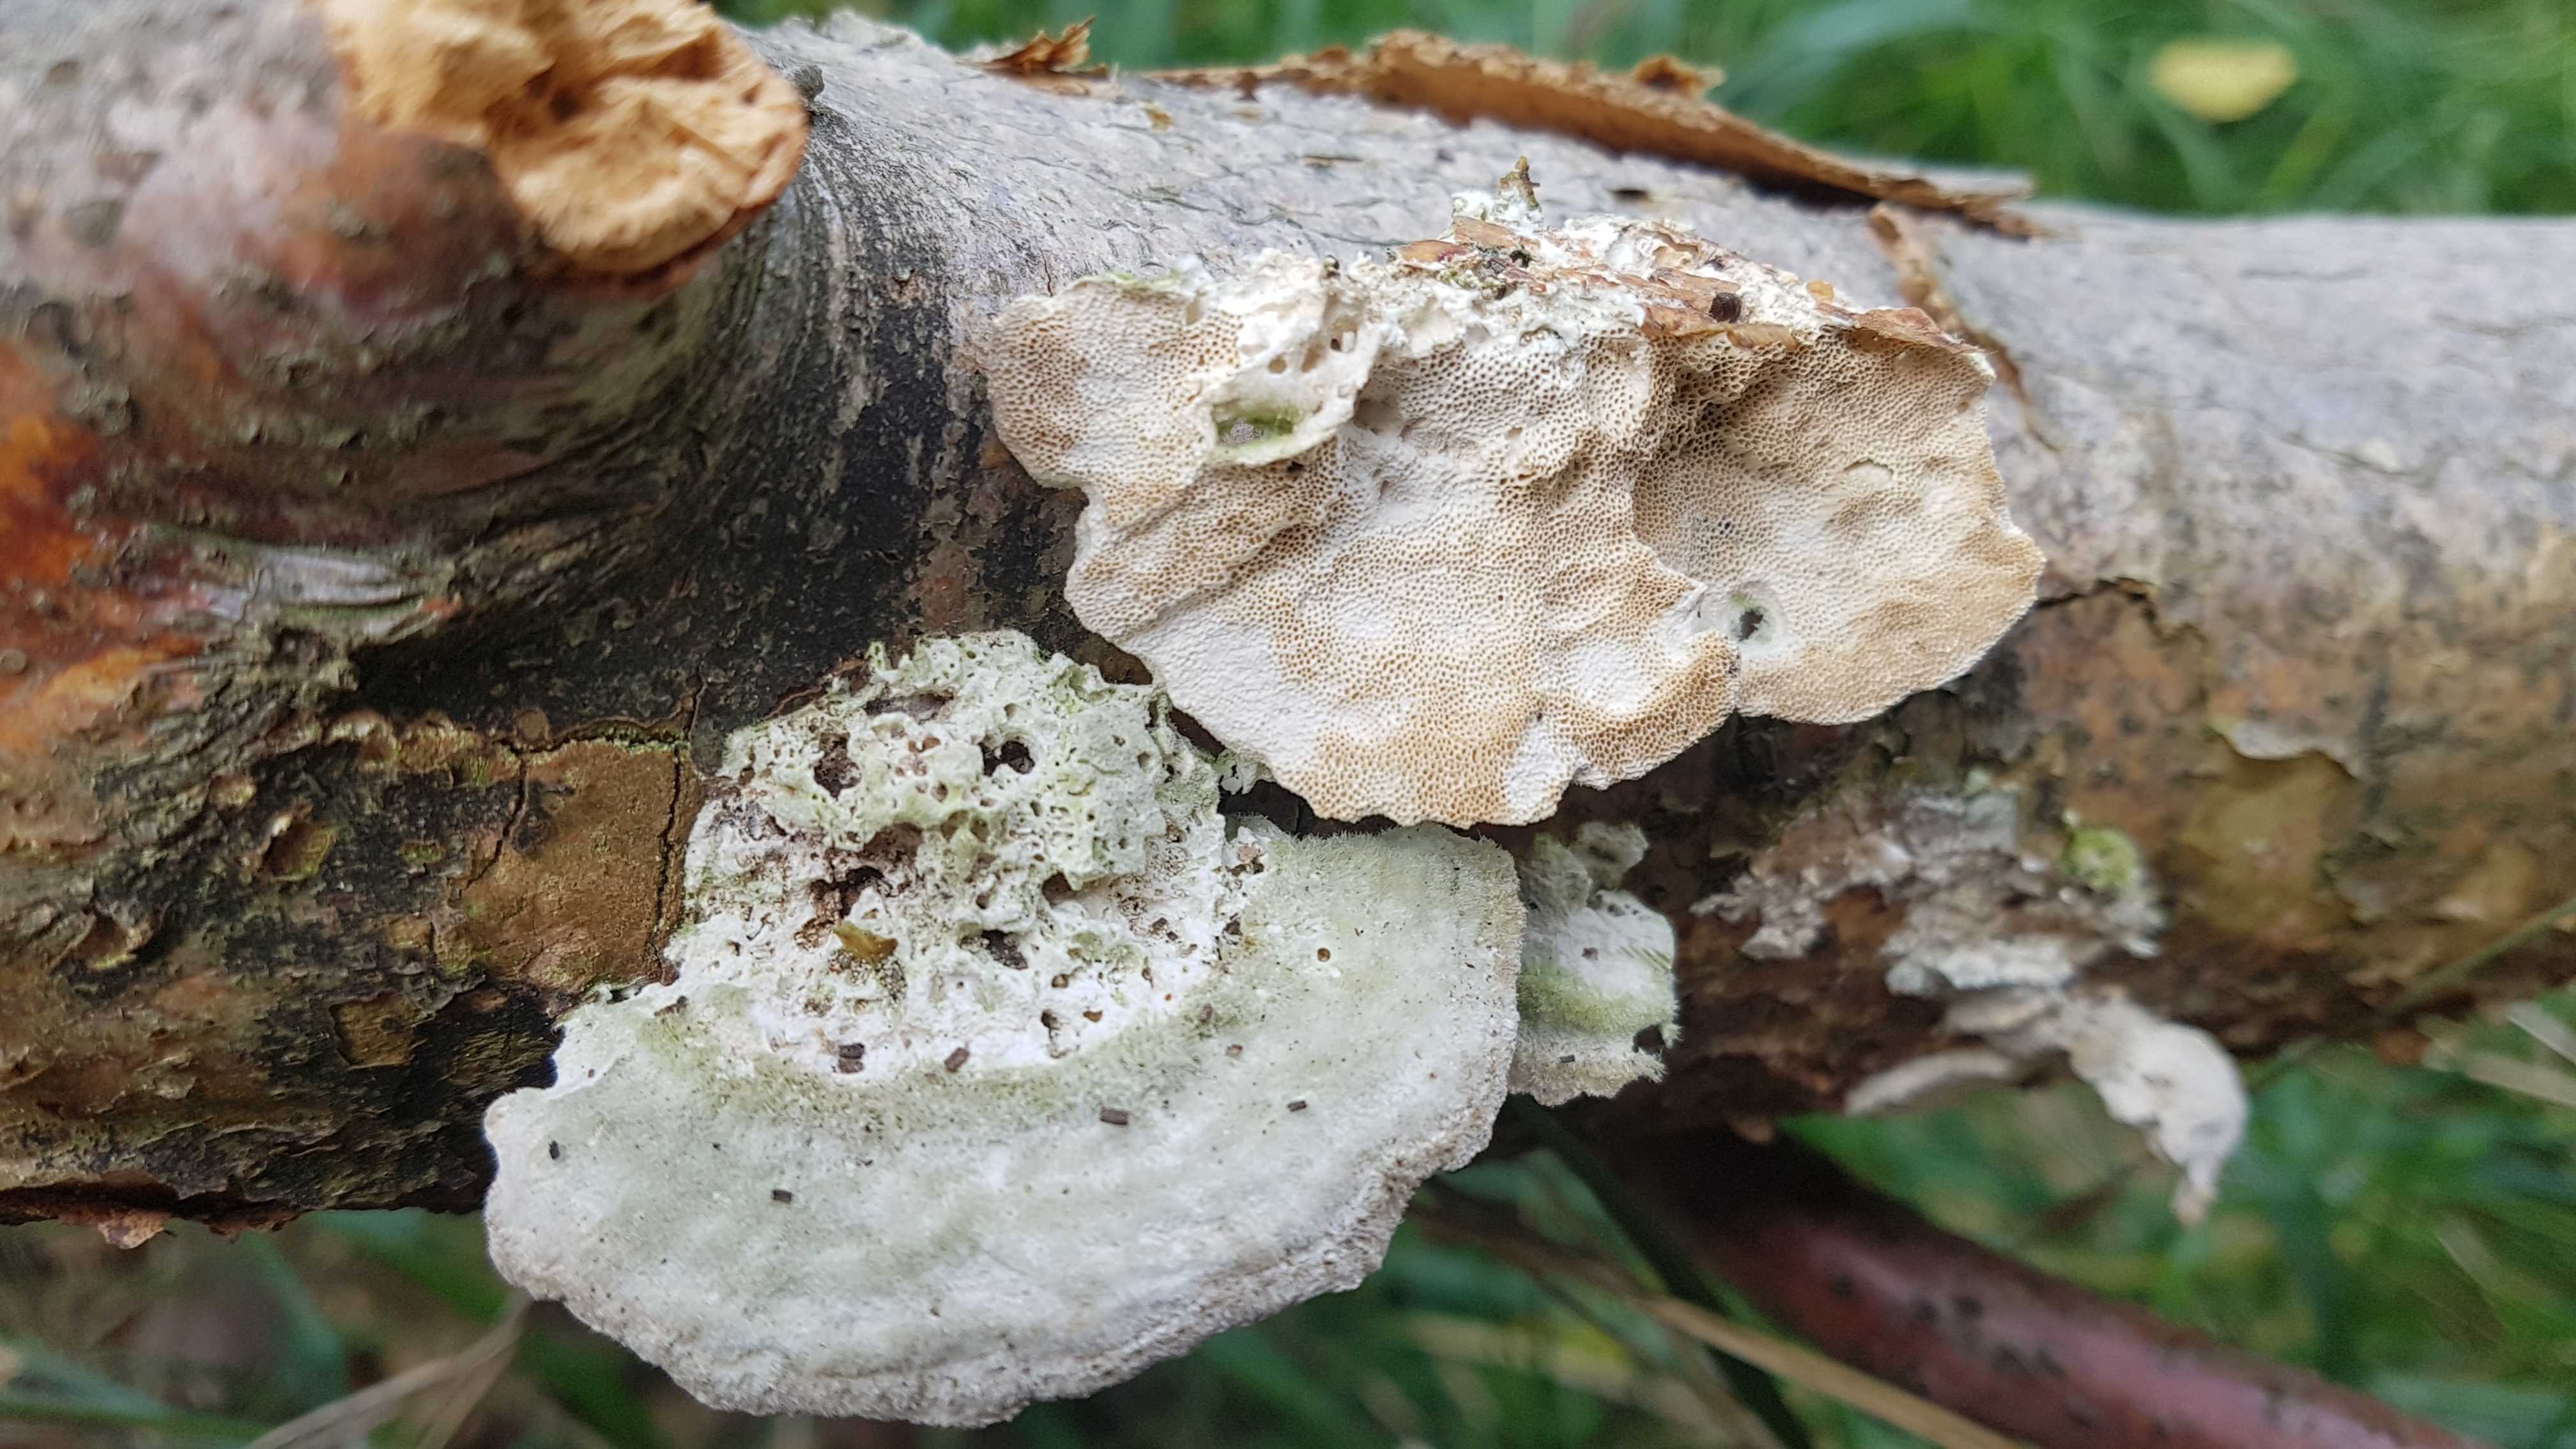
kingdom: Fungi
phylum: Basidiomycota
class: Agaricomycetes
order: Polyporales
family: Polyporaceae
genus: Trametes
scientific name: Trametes hirsuta
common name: håret læderporesvamp
